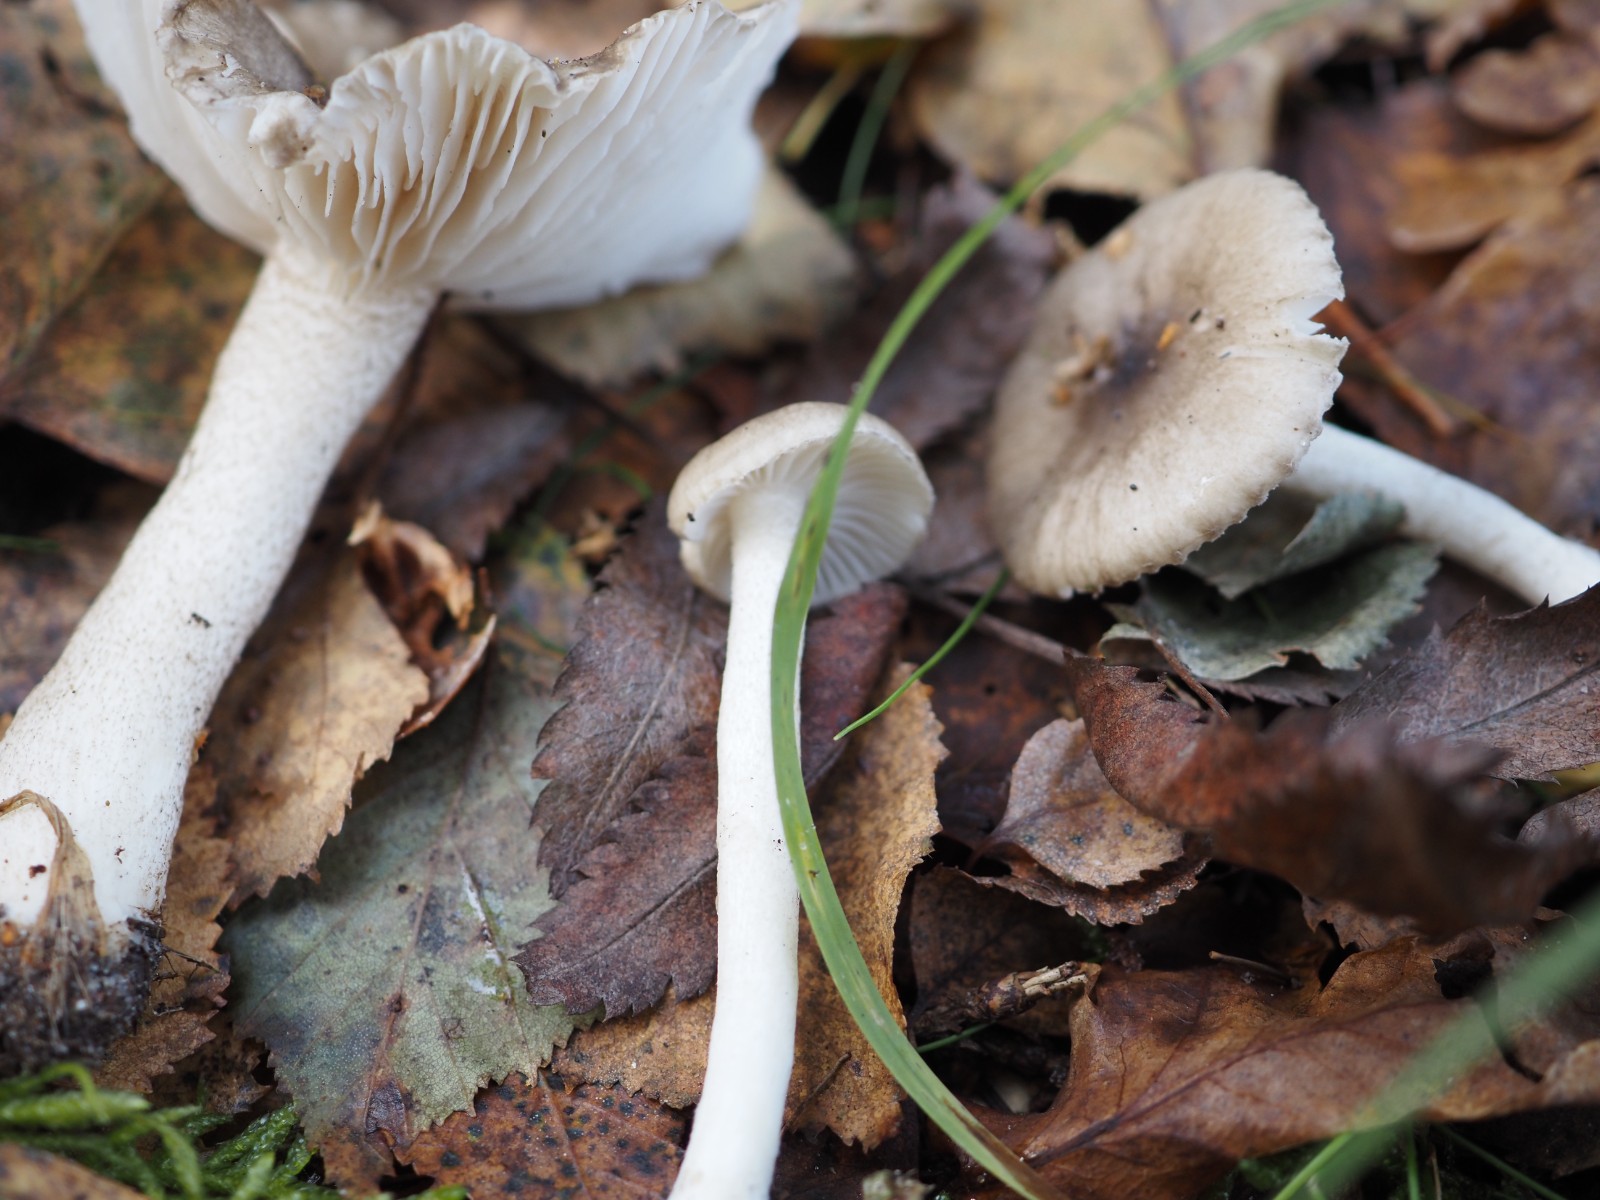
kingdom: Fungi
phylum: Basidiomycota
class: Agaricomycetes
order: Agaricales
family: Hygrophoraceae
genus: Hygrophorus
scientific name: Hygrophorus pustulatus
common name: mørkprikket sneglehat
